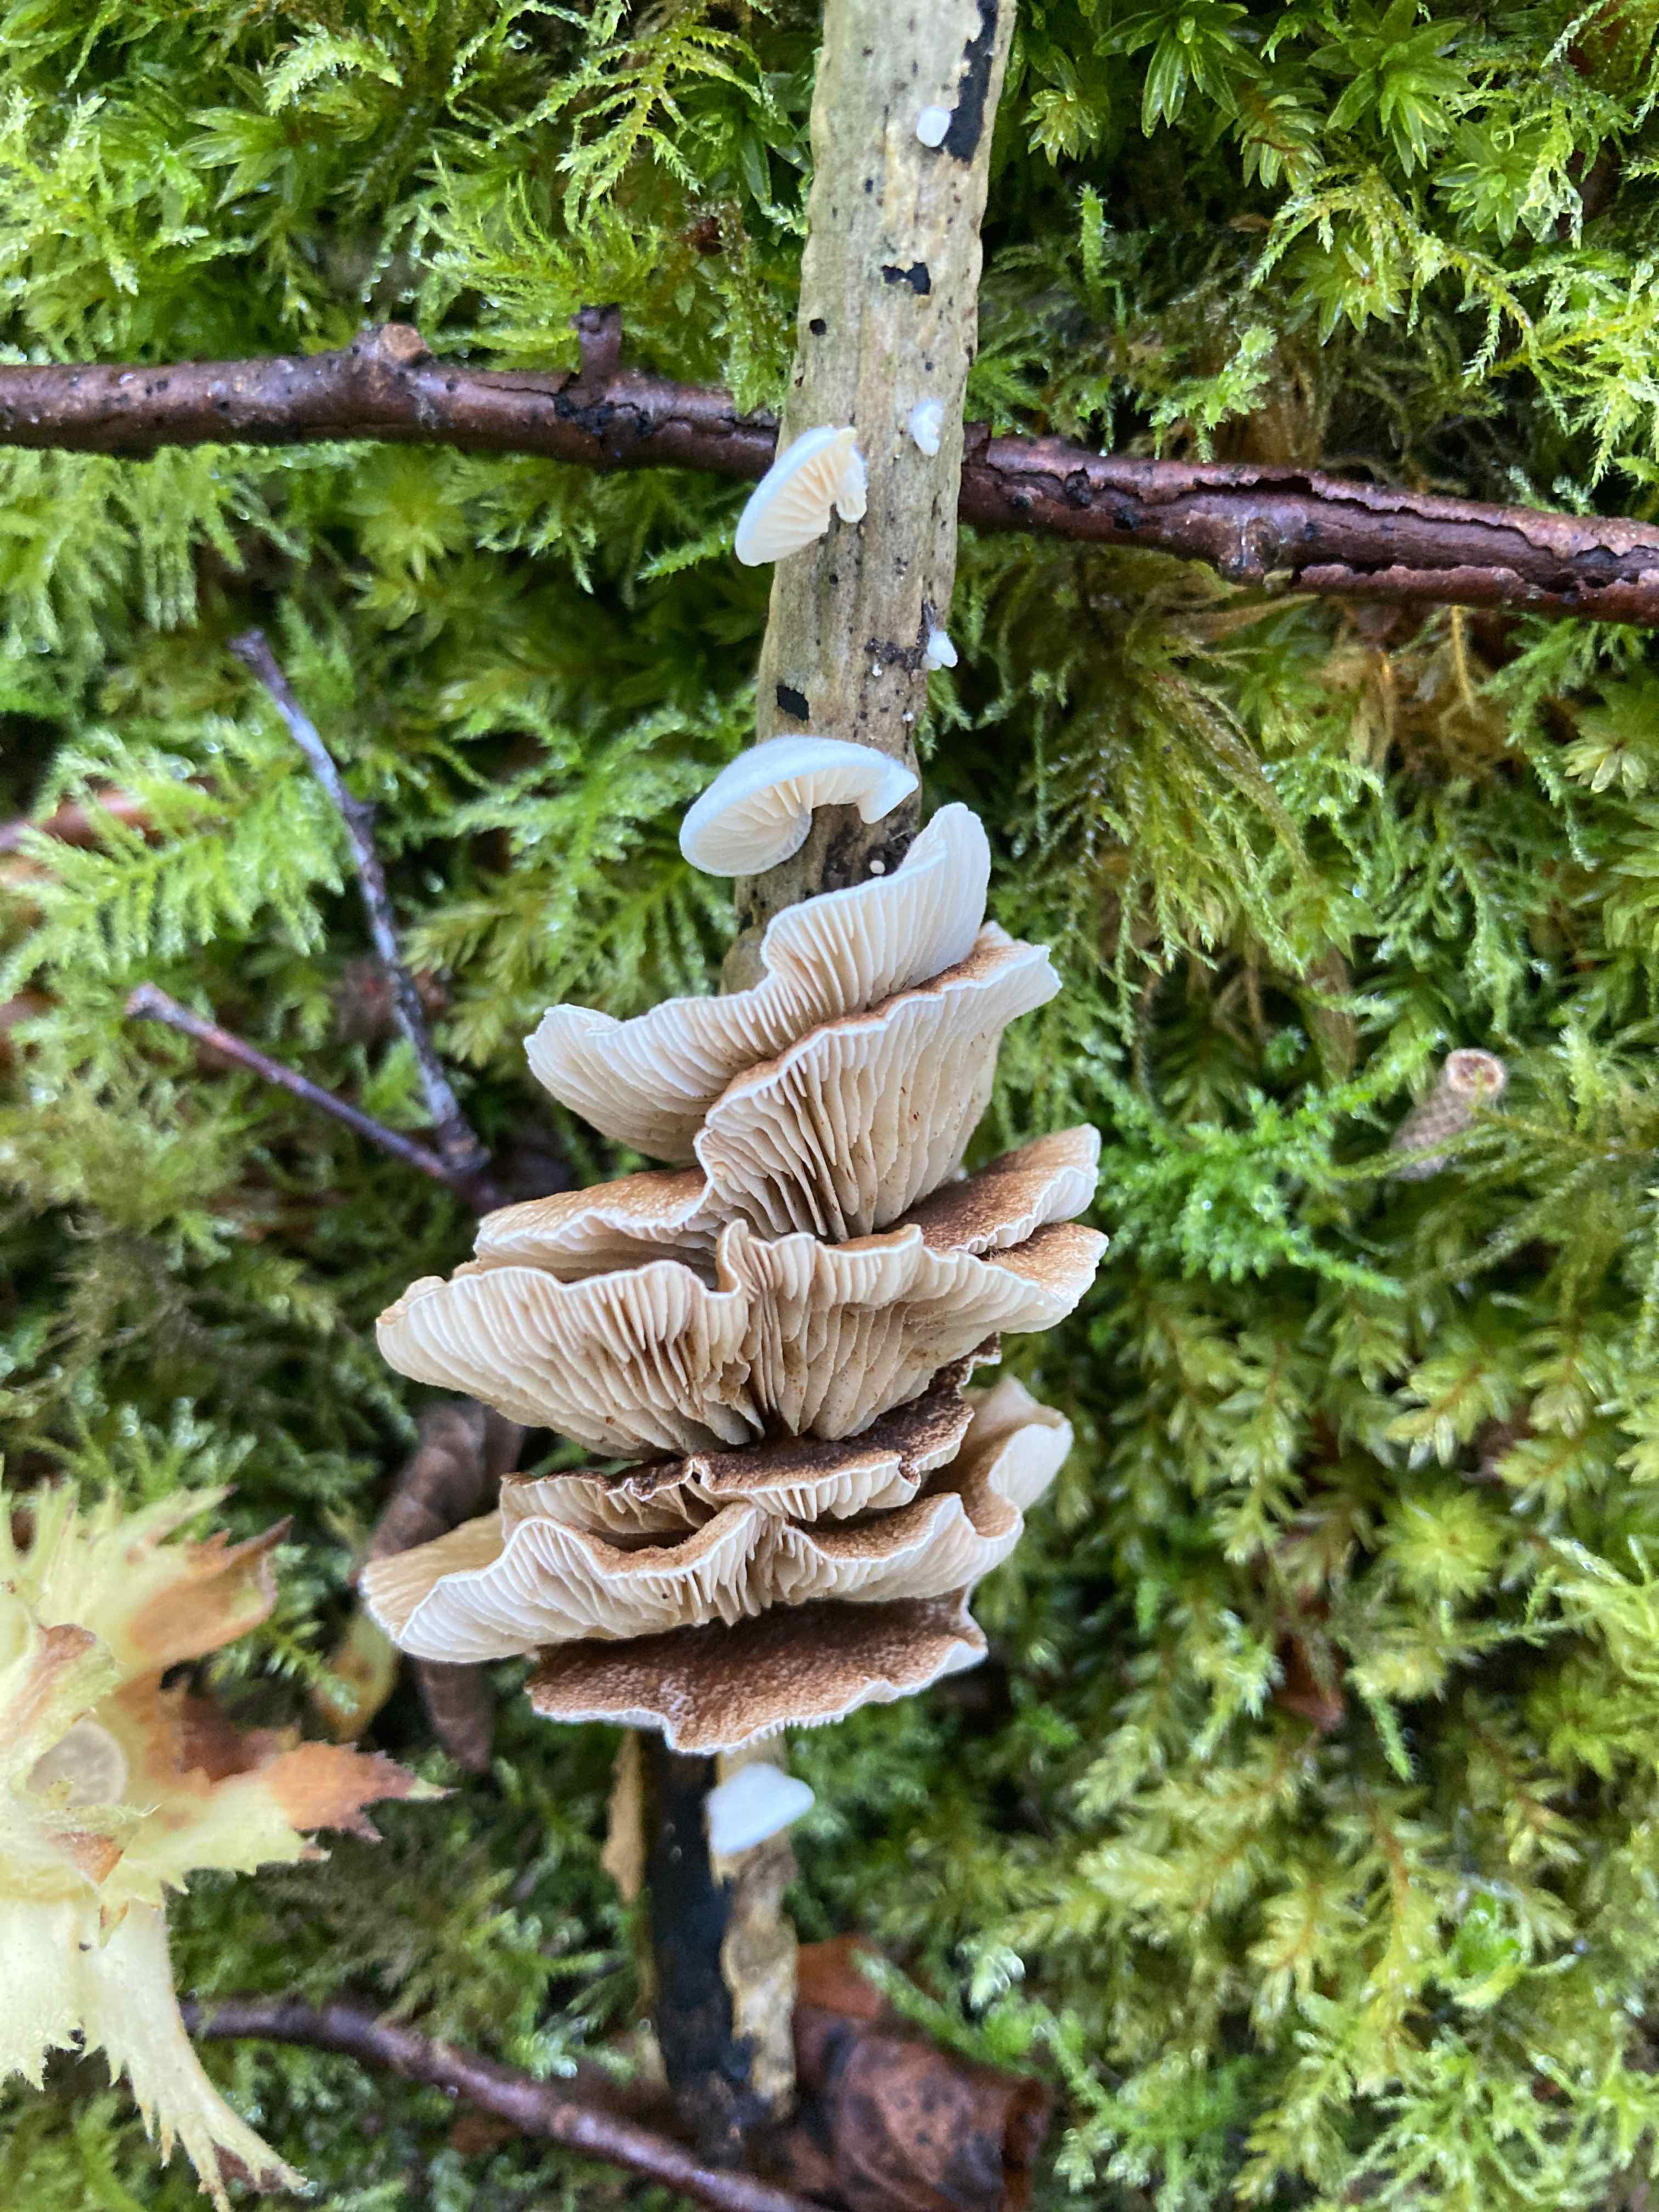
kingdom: Fungi
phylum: Basidiomycota
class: Agaricomycetes
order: Agaricales
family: Crepidotaceae
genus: Crepidotus
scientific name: Crepidotus caspari
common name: Lundells muslingesvamp
